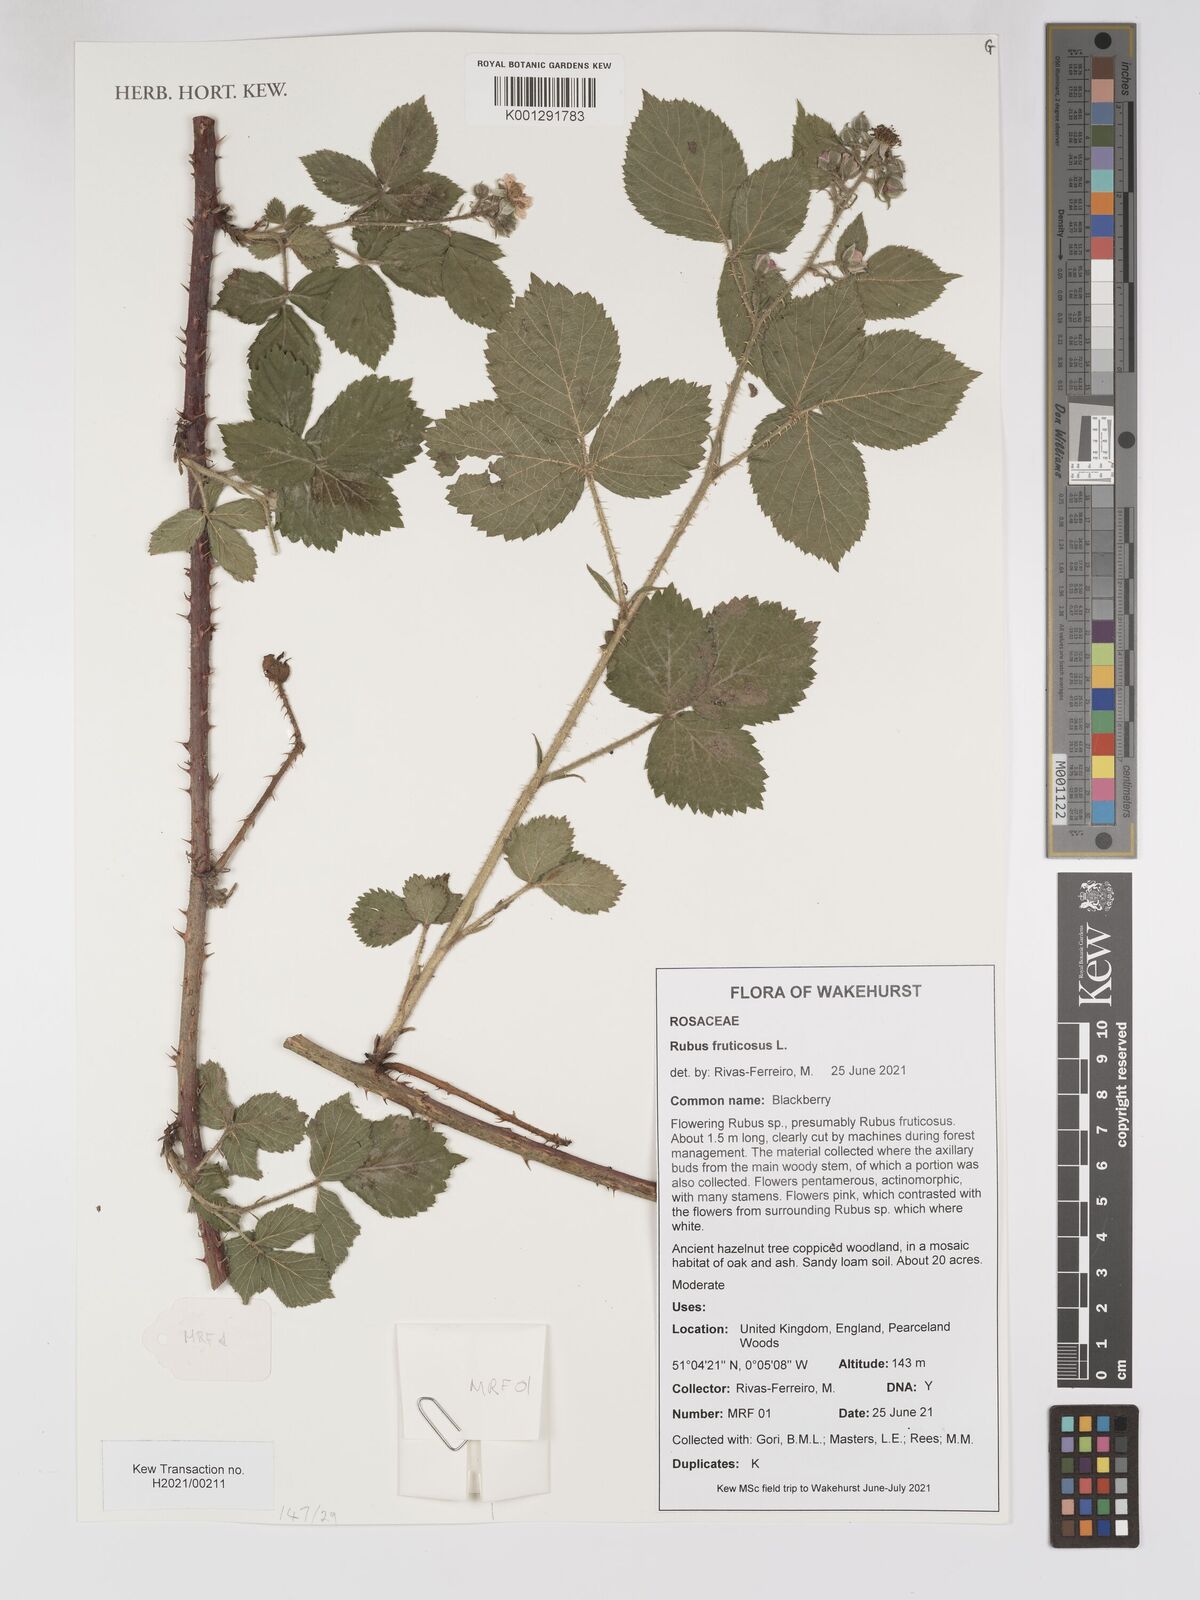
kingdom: Plantae
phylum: Tracheophyta
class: Magnoliopsida
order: Rosales
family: Rosaceae
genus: Rubus
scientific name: Rubus fruticosus
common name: Blackberry, bramble
